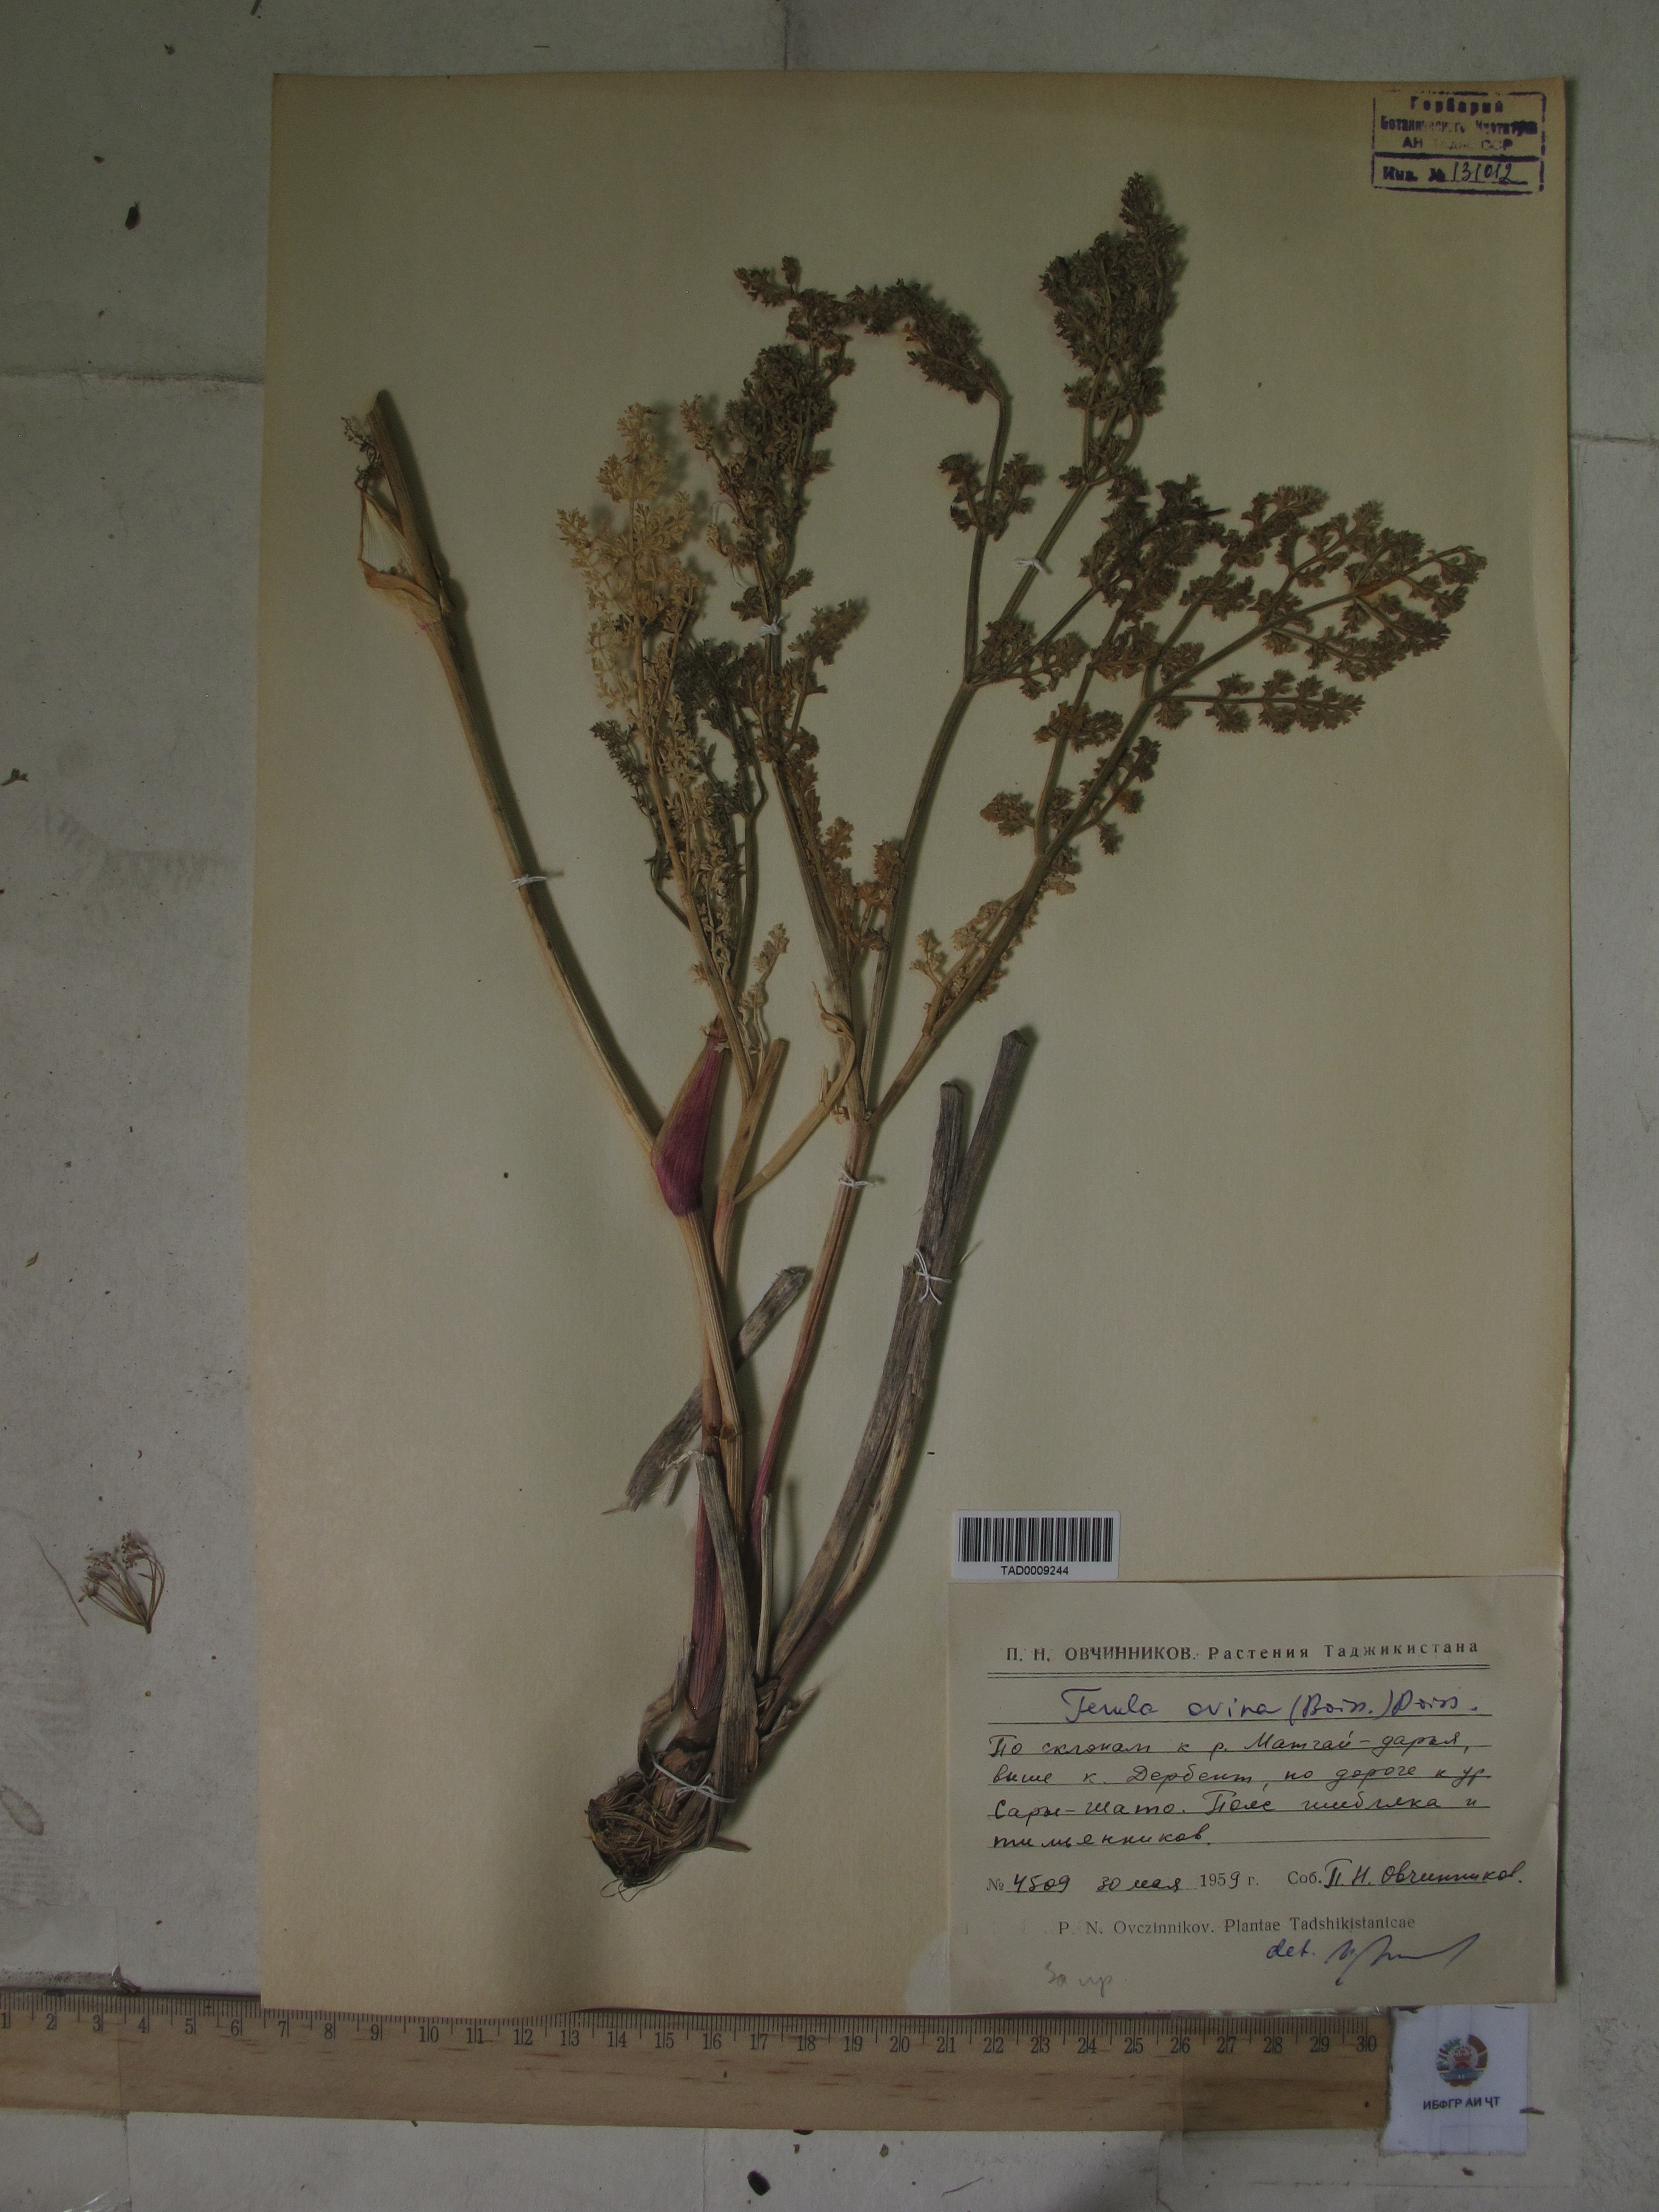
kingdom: Plantae
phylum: Tracheophyta
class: Magnoliopsida
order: Apiales
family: Apiaceae
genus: Ferula
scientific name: Ferula ovina
